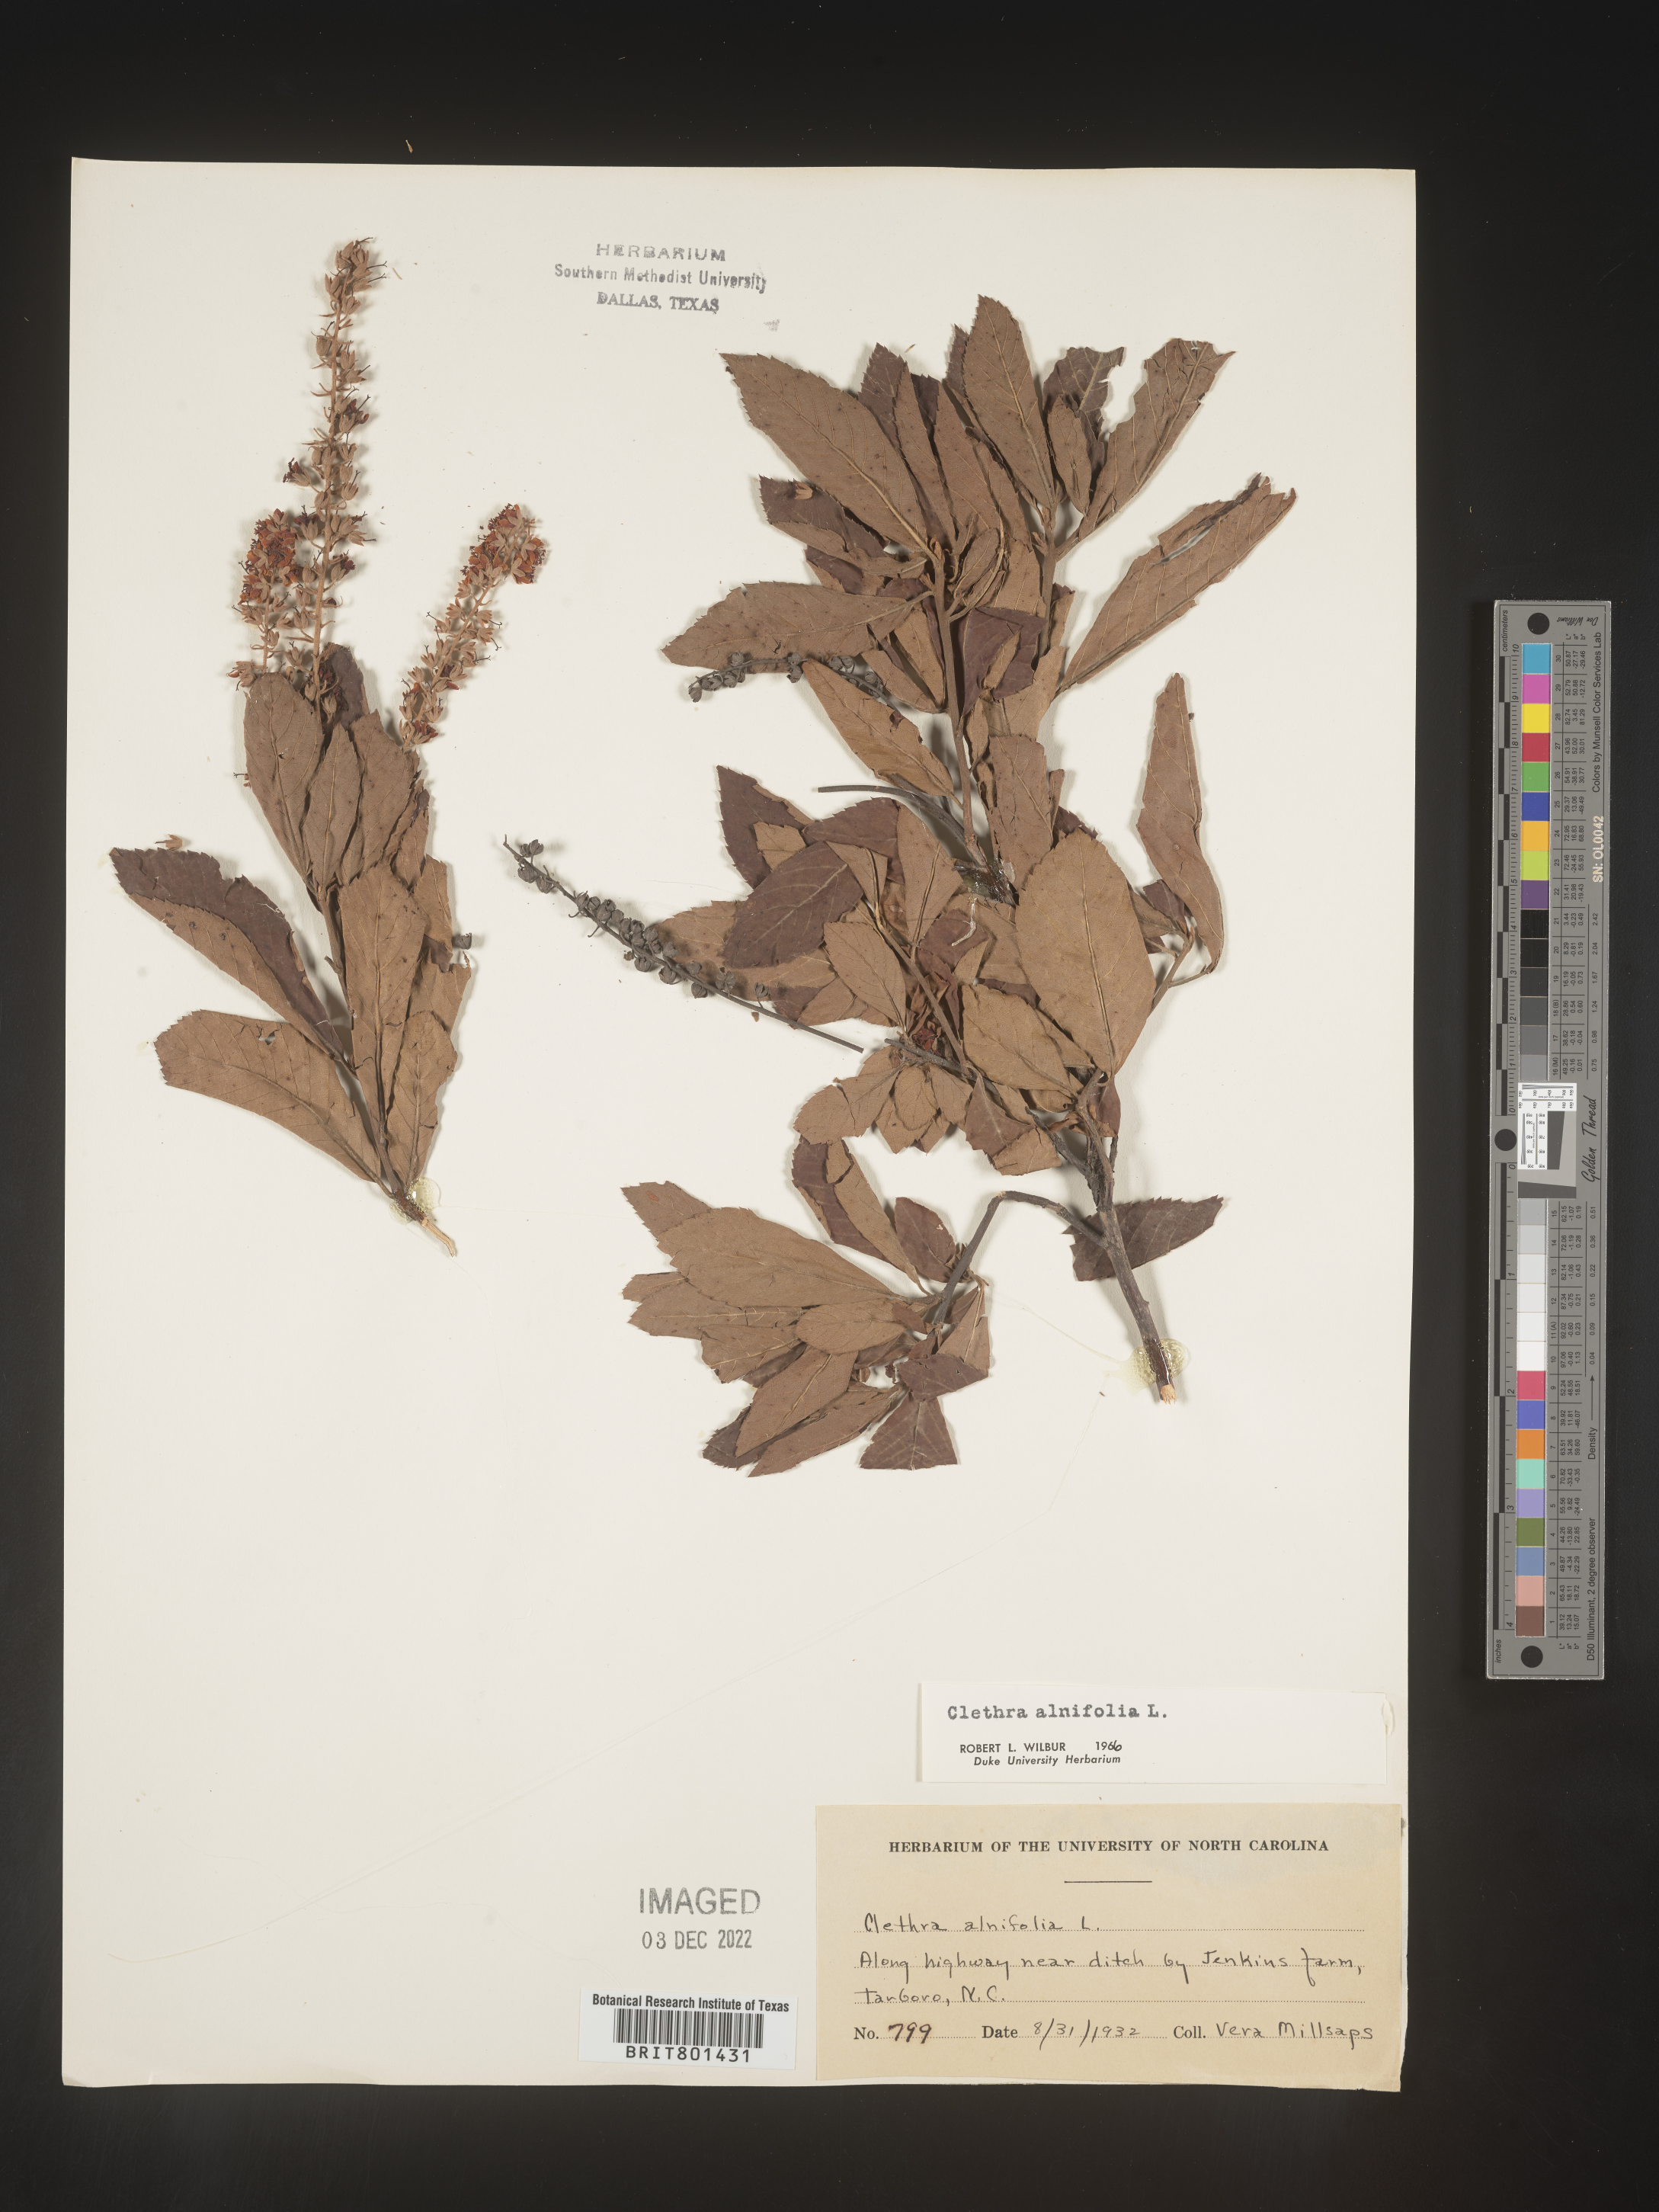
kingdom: Plantae
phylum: Tracheophyta
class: Magnoliopsida
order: Ericales
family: Clethraceae
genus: Clethra
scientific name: Clethra alnifolia
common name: Sweet pepperbush
